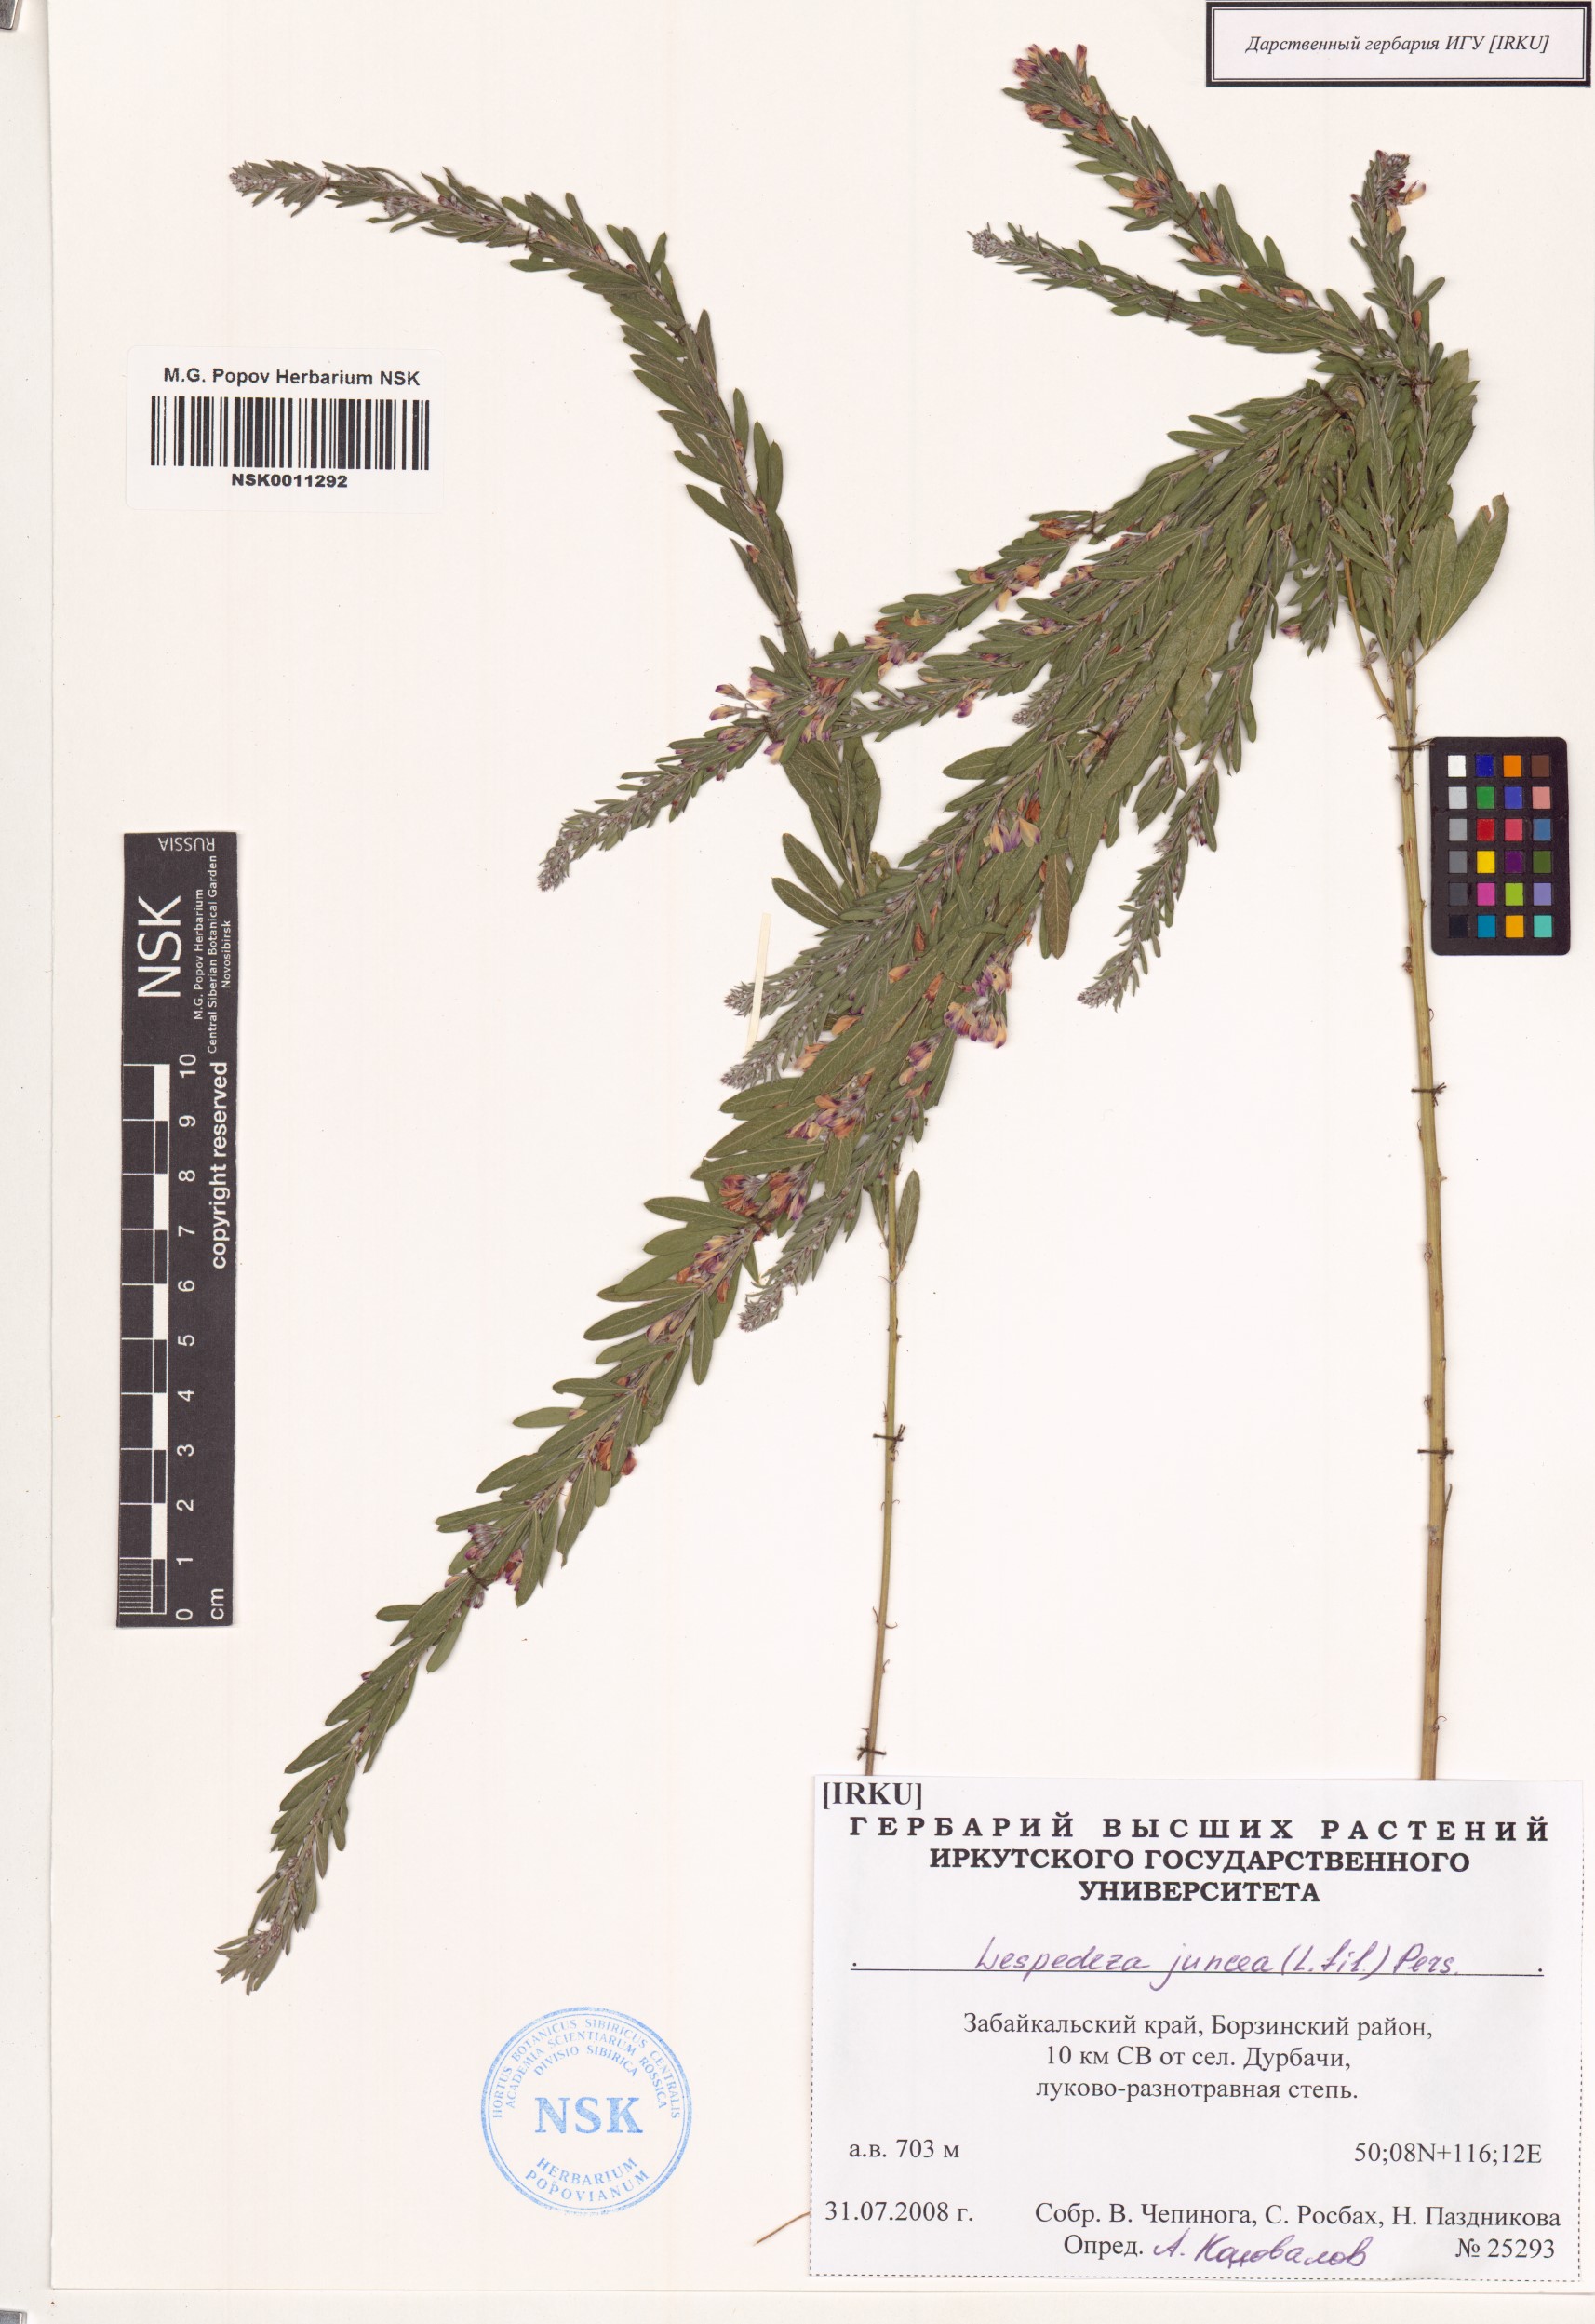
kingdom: Plantae
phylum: Tracheophyta
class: Magnoliopsida
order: Fabales
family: Fabaceae
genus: Lespedeza
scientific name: Lespedeza juncea
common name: Siberian lespedeza
